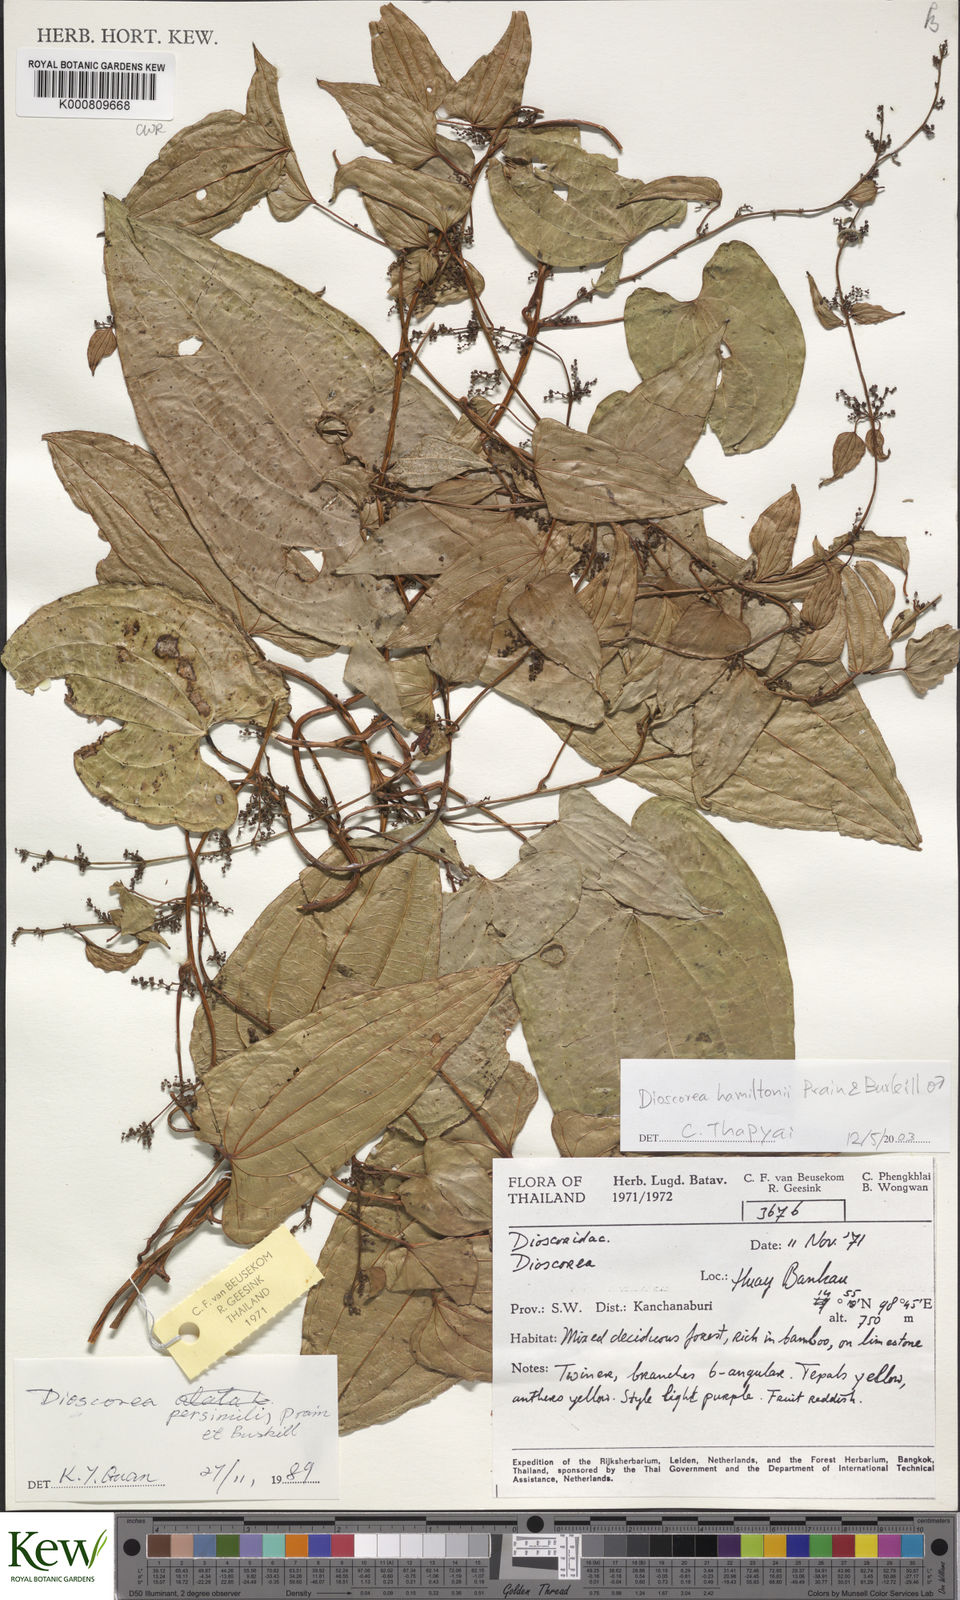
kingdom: Plantae
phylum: Tracheophyta
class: Liliopsida
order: Dioscoreales
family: Dioscoreaceae
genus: Dioscorea
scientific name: Dioscorea hamiltonii
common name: Mountain yam
